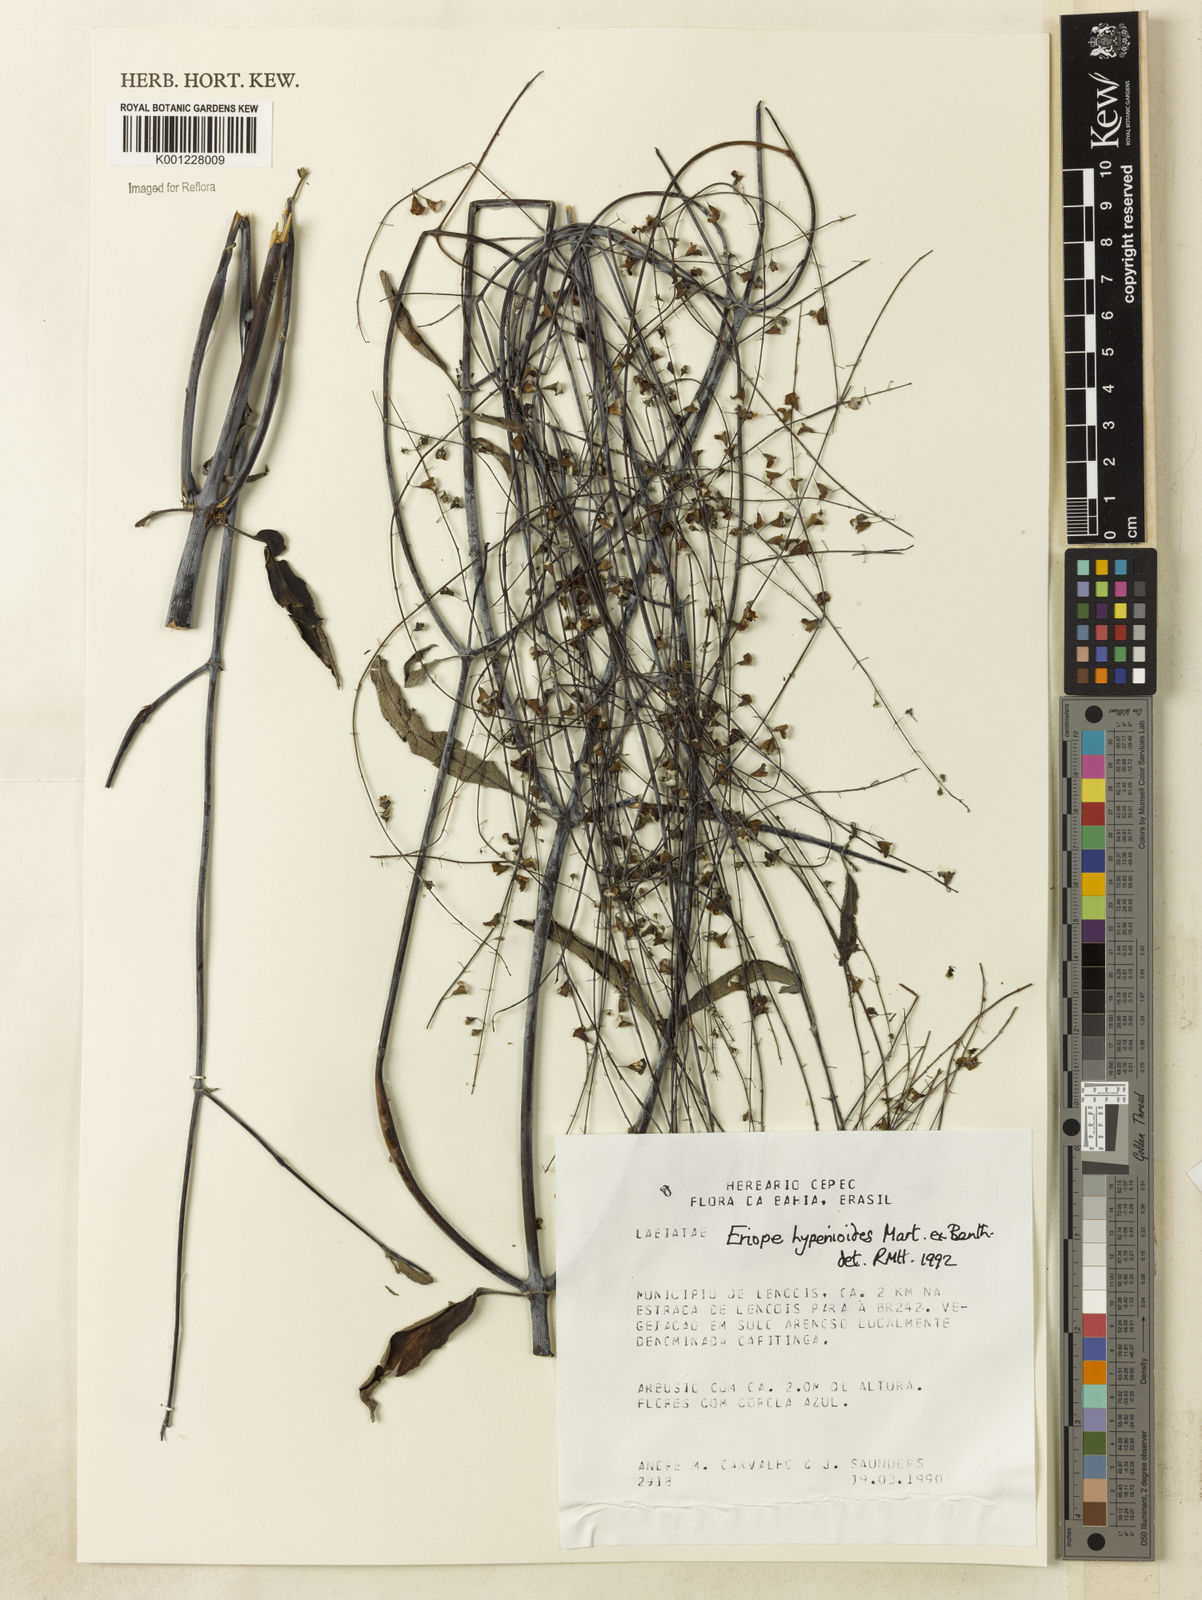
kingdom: Plantae
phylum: Tracheophyta
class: Magnoliopsida
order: Lamiales
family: Lamiaceae
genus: Eriope
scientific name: Eriope hypenioides
